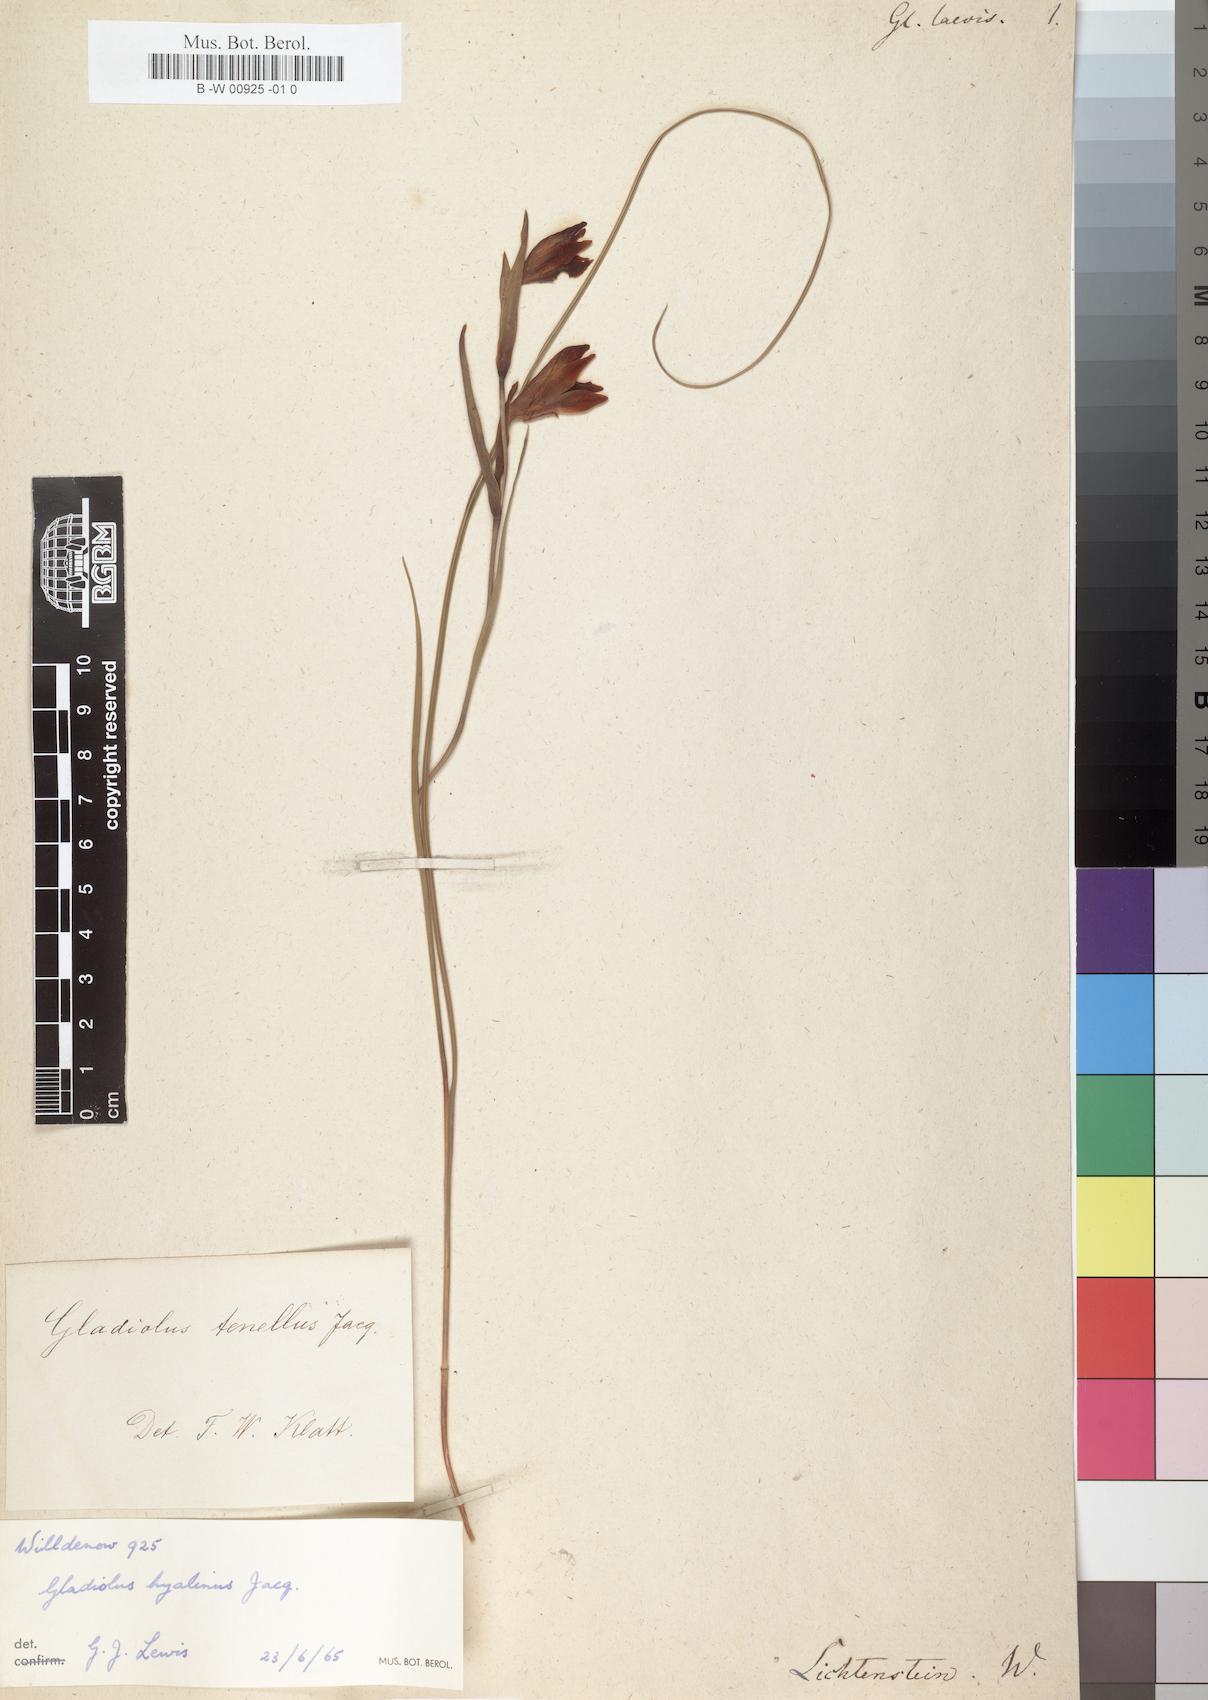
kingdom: Plantae
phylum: Tracheophyta
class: Liliopsida
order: Asparagales
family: Iridaceae
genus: Gladiolus
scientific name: Gladiolus carinatus
